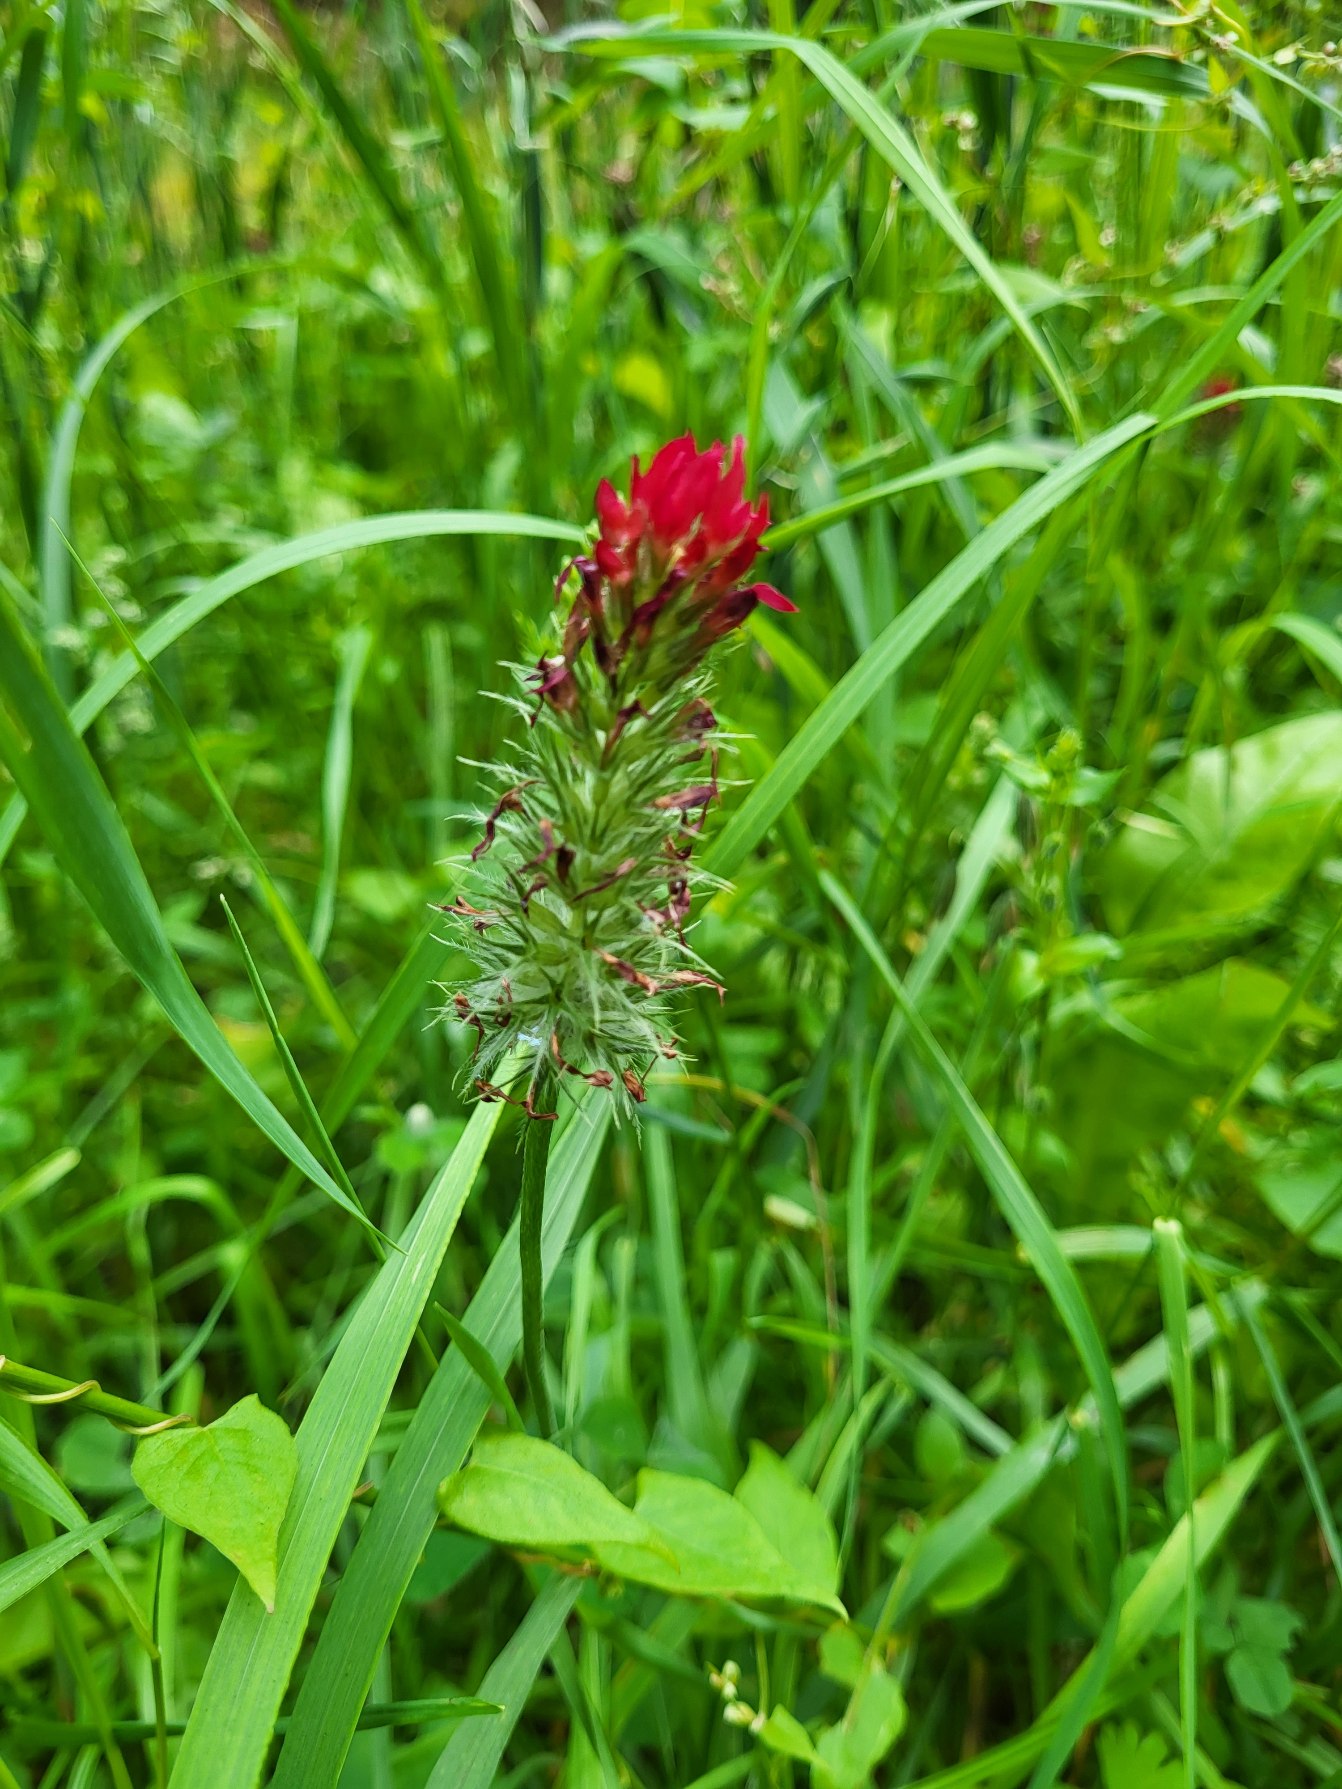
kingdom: Plantae
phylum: Tracheophyta
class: Magnoliopsida
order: Fabales
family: Fabaceae
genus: Trifolium
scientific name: Trifolium incarnatum
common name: Blod-kløver
